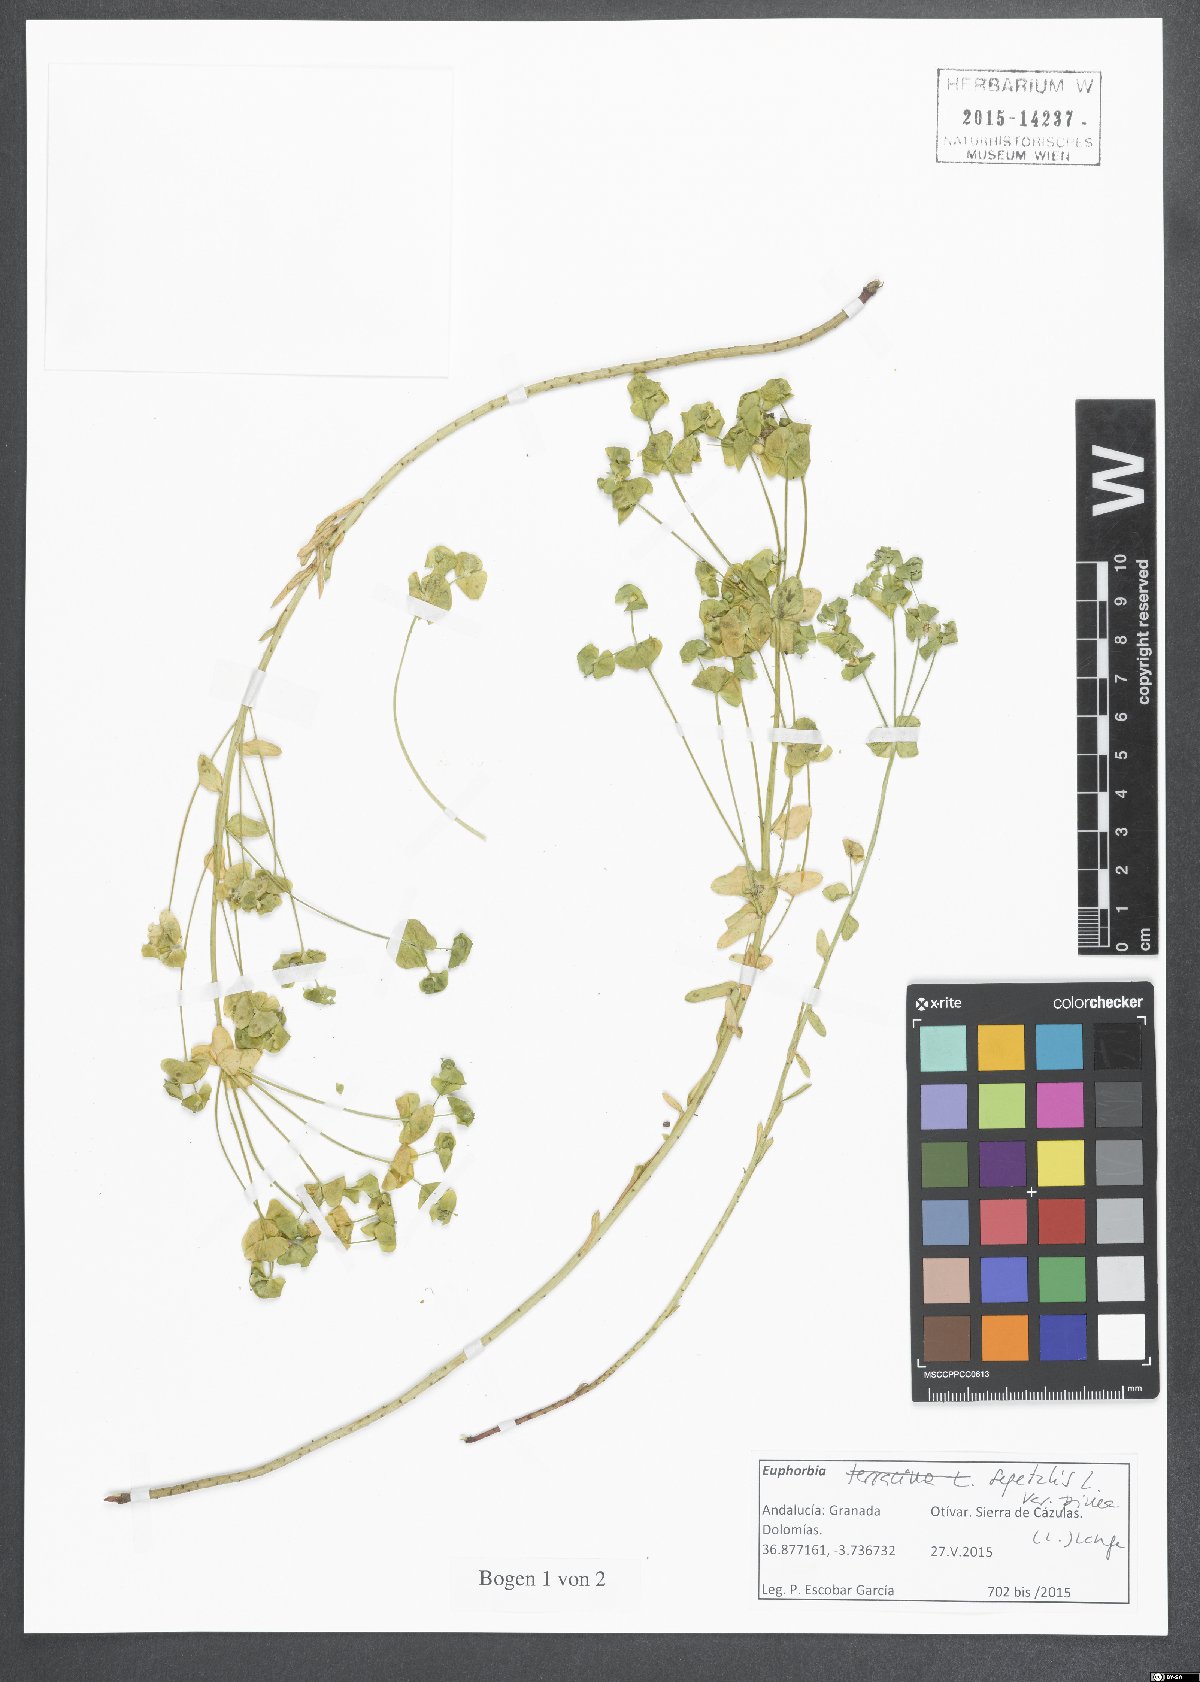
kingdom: Plantae
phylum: Tracheophyta
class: Magnoliopsida
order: Malpighiales
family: Euphorbiaceae
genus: Euphorbia
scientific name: Euphorbia segetalis
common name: Corn spurge
